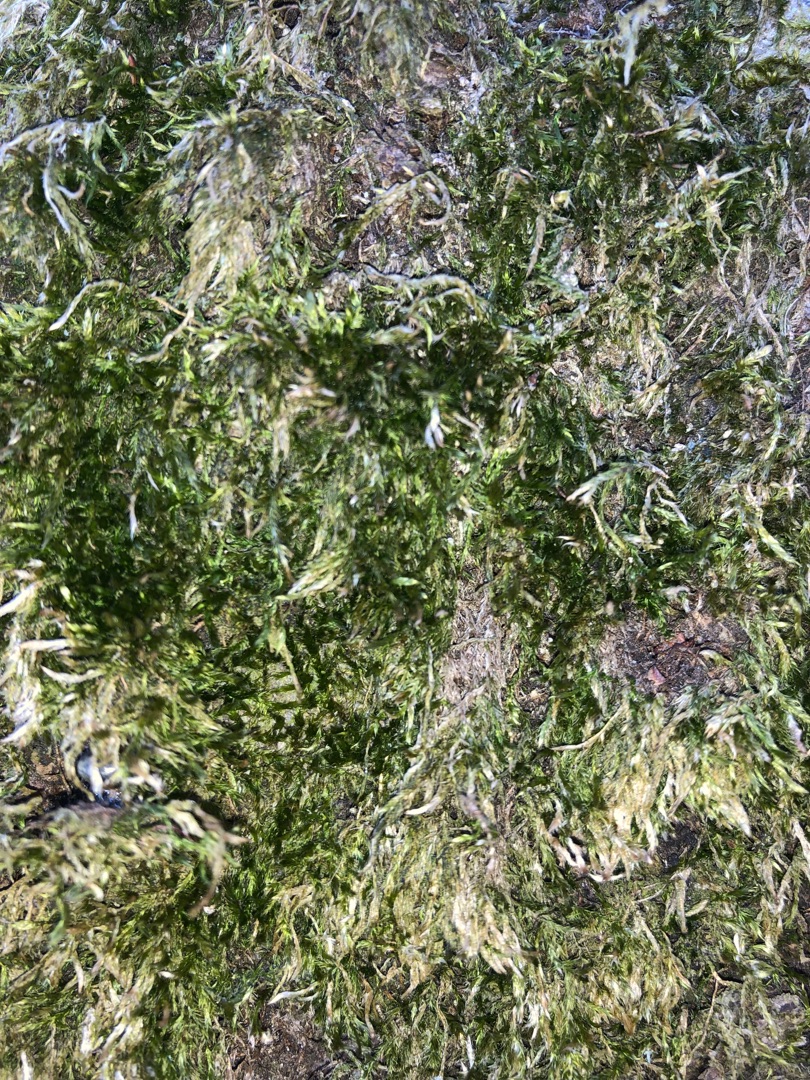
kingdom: Plantae
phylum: Bryophyta
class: Bryopsida
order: Hypnales
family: Hypnaceae
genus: Hypnum
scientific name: Hypnum
